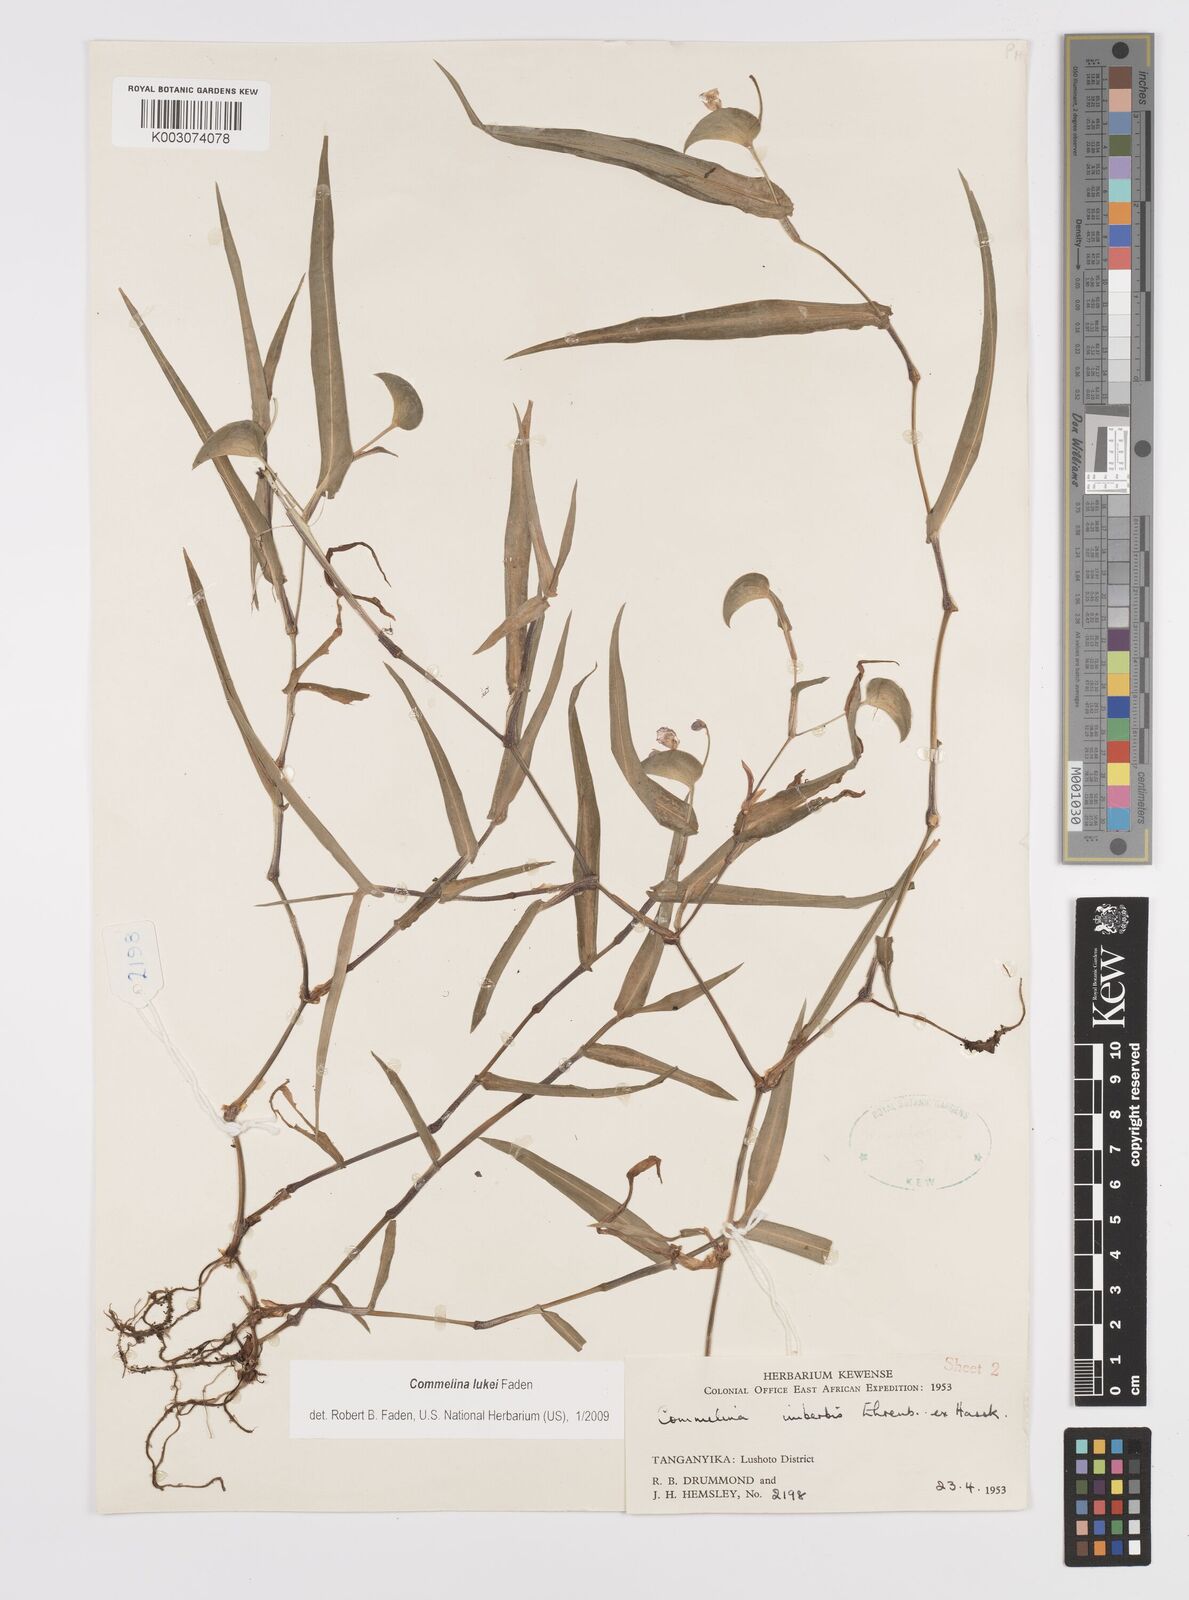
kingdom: Plantae
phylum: Tracheophyta
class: Liliopsida
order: Commelinales
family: Commelinaceae
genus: Commelina
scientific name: Commelina lukei
